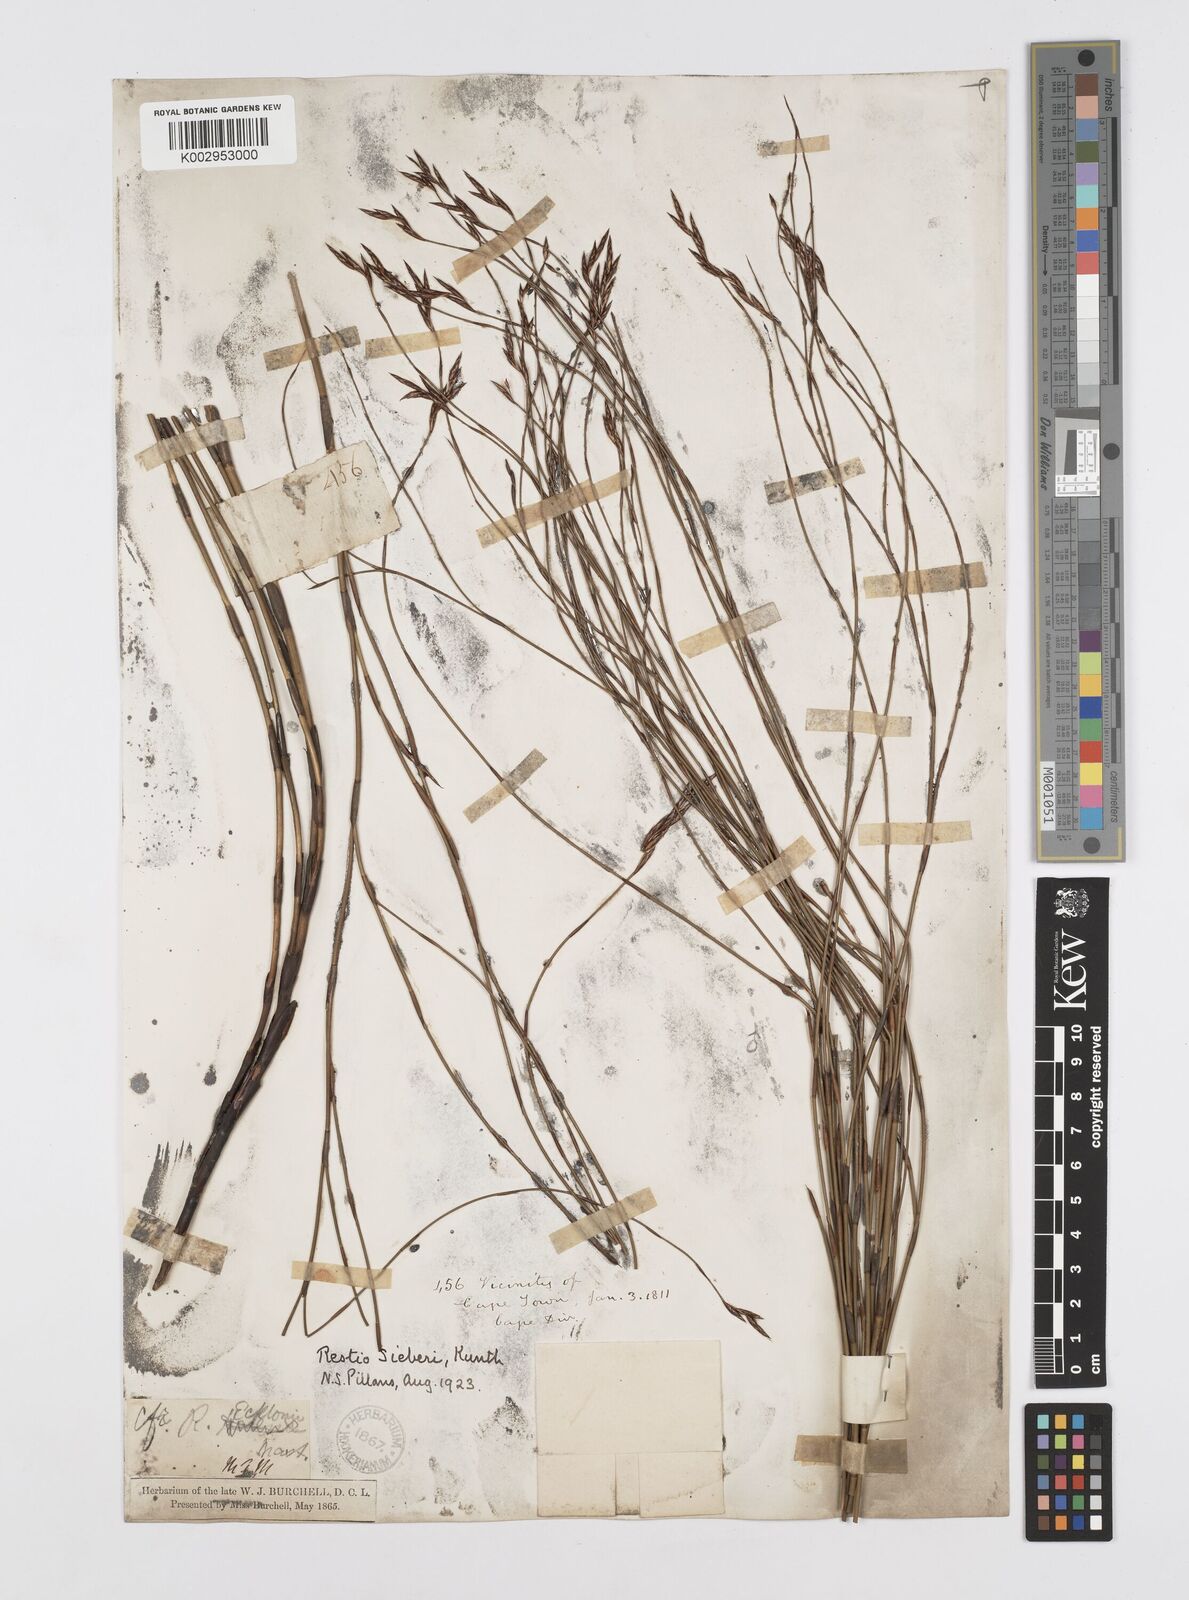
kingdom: Plantae
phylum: Tracheophyta
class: Liliopsida
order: Poales
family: Restionaceae
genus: Restio
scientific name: Restio sieberi
